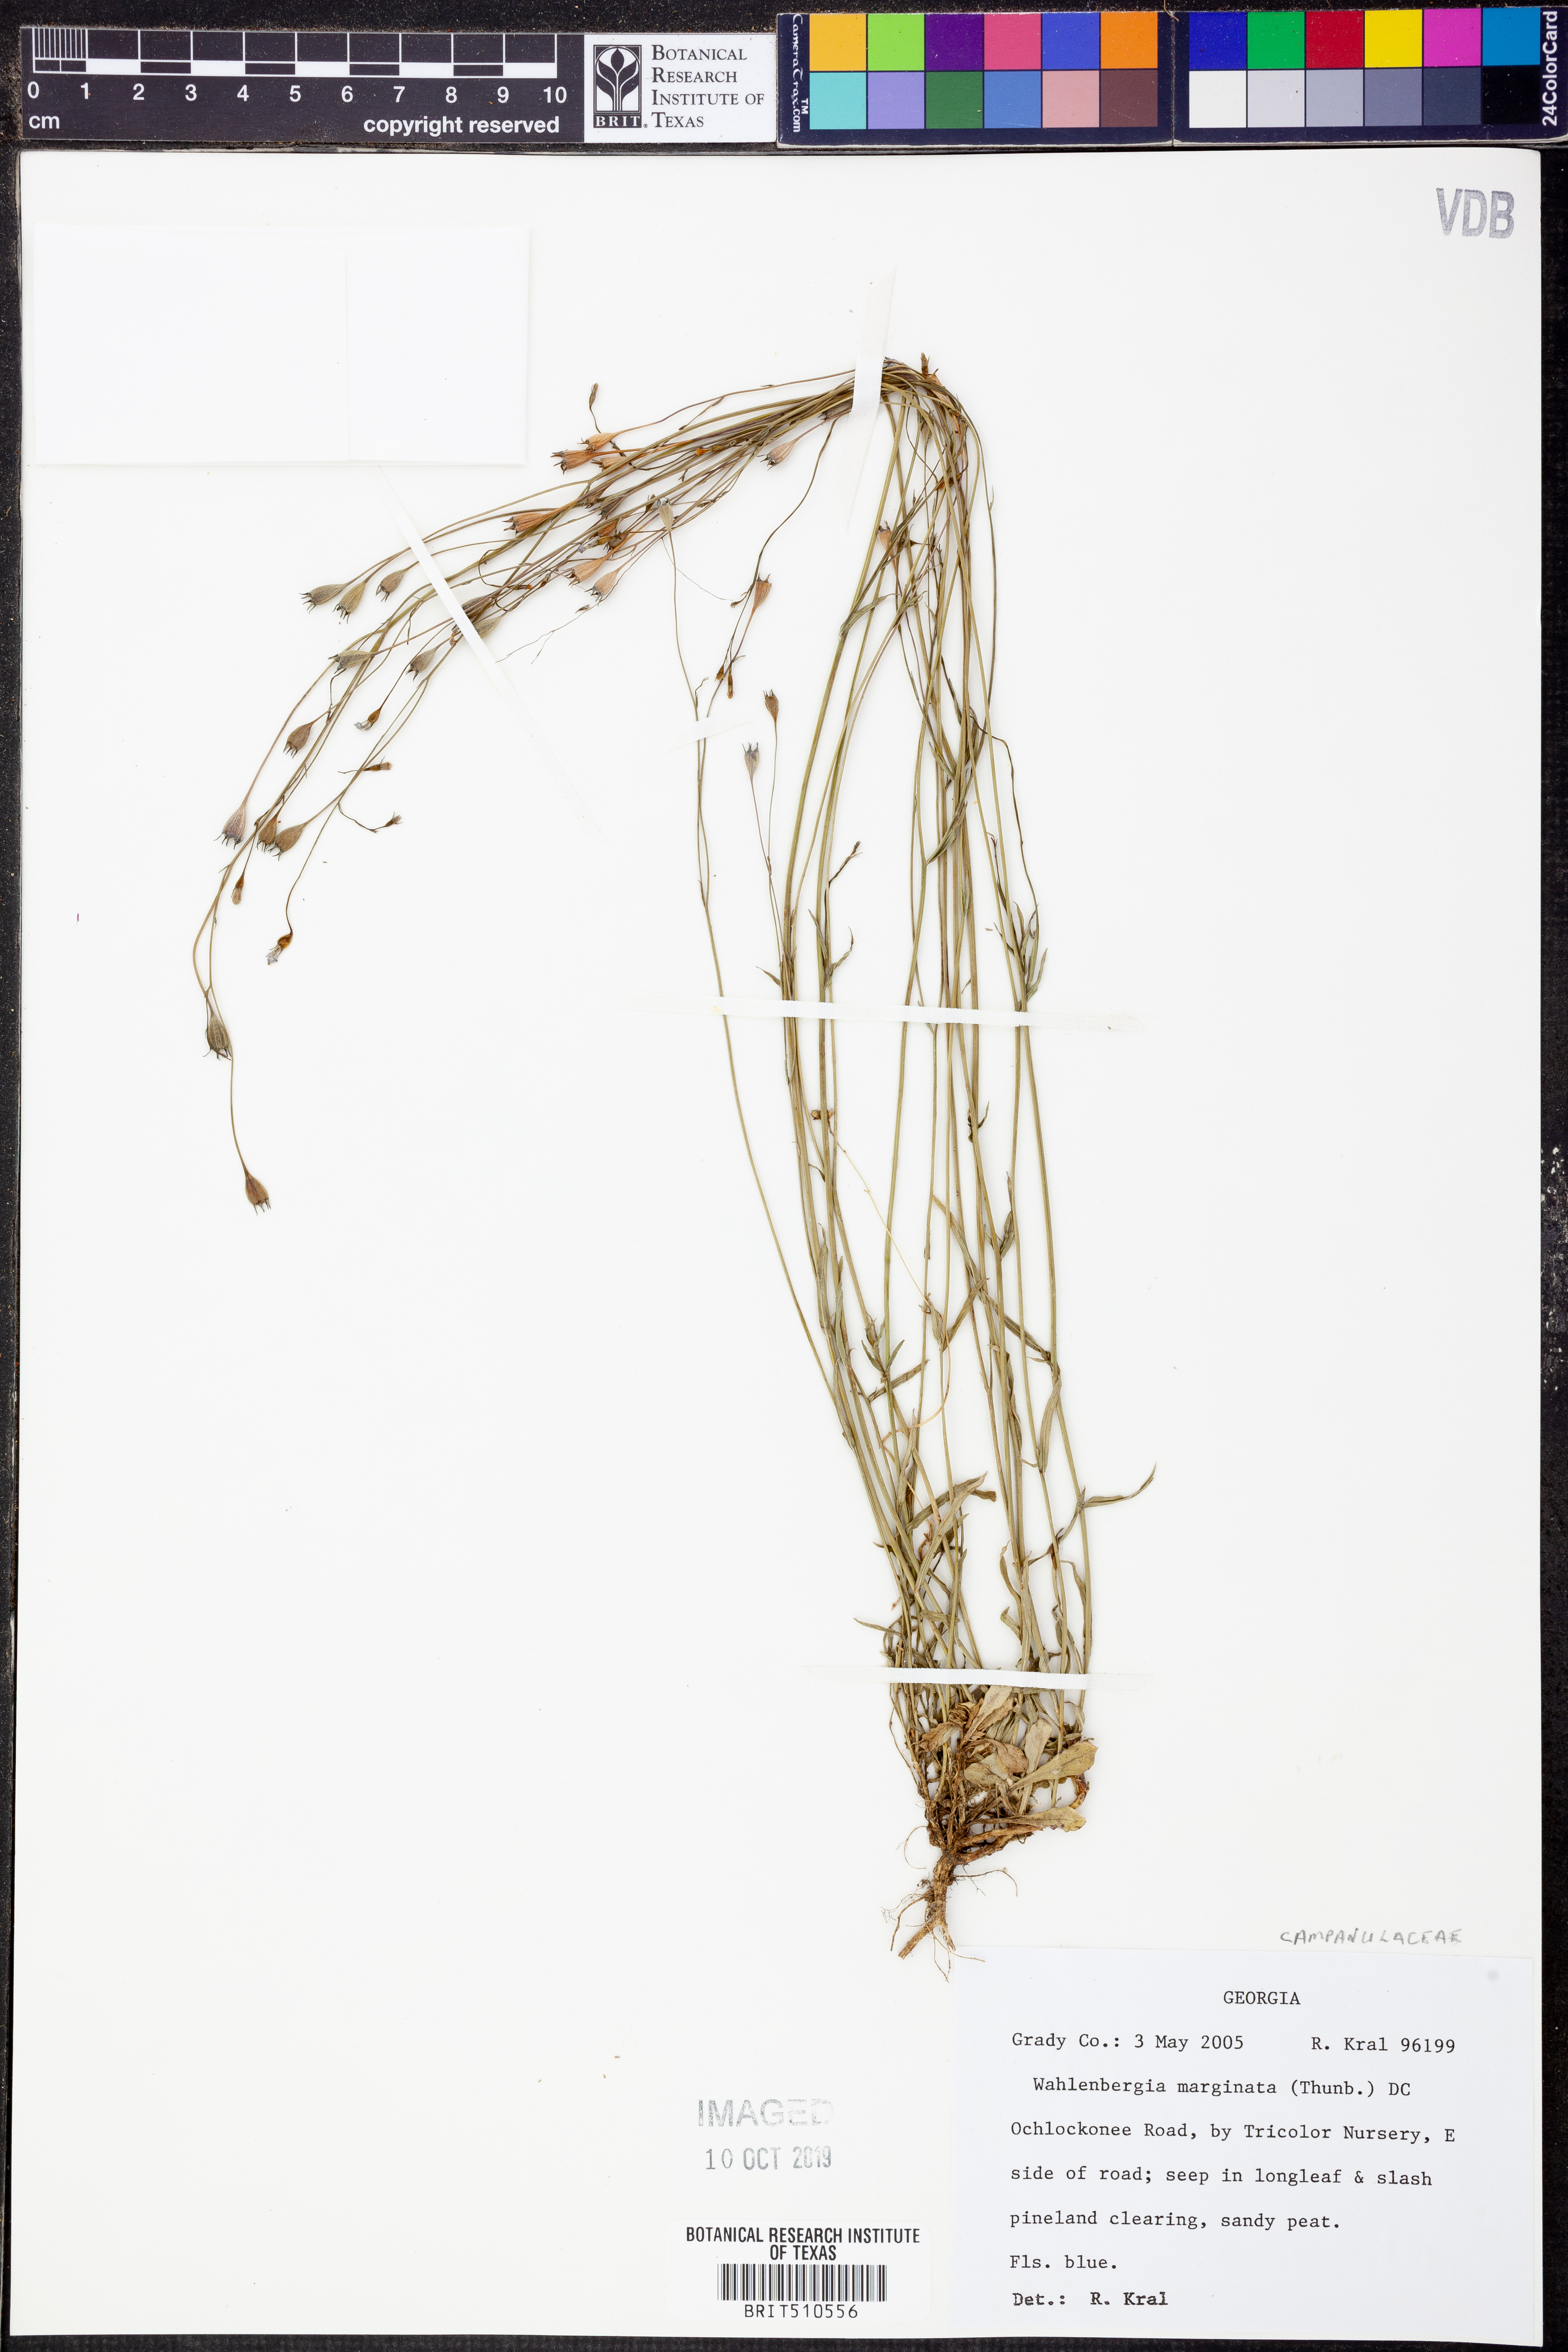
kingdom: Plantae
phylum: Tracheophyta
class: Magnoliopsida
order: Asterales
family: Campanulaceae
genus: Wahlenbergia
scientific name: Wahlenbergia marginata
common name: Southern rockbell
